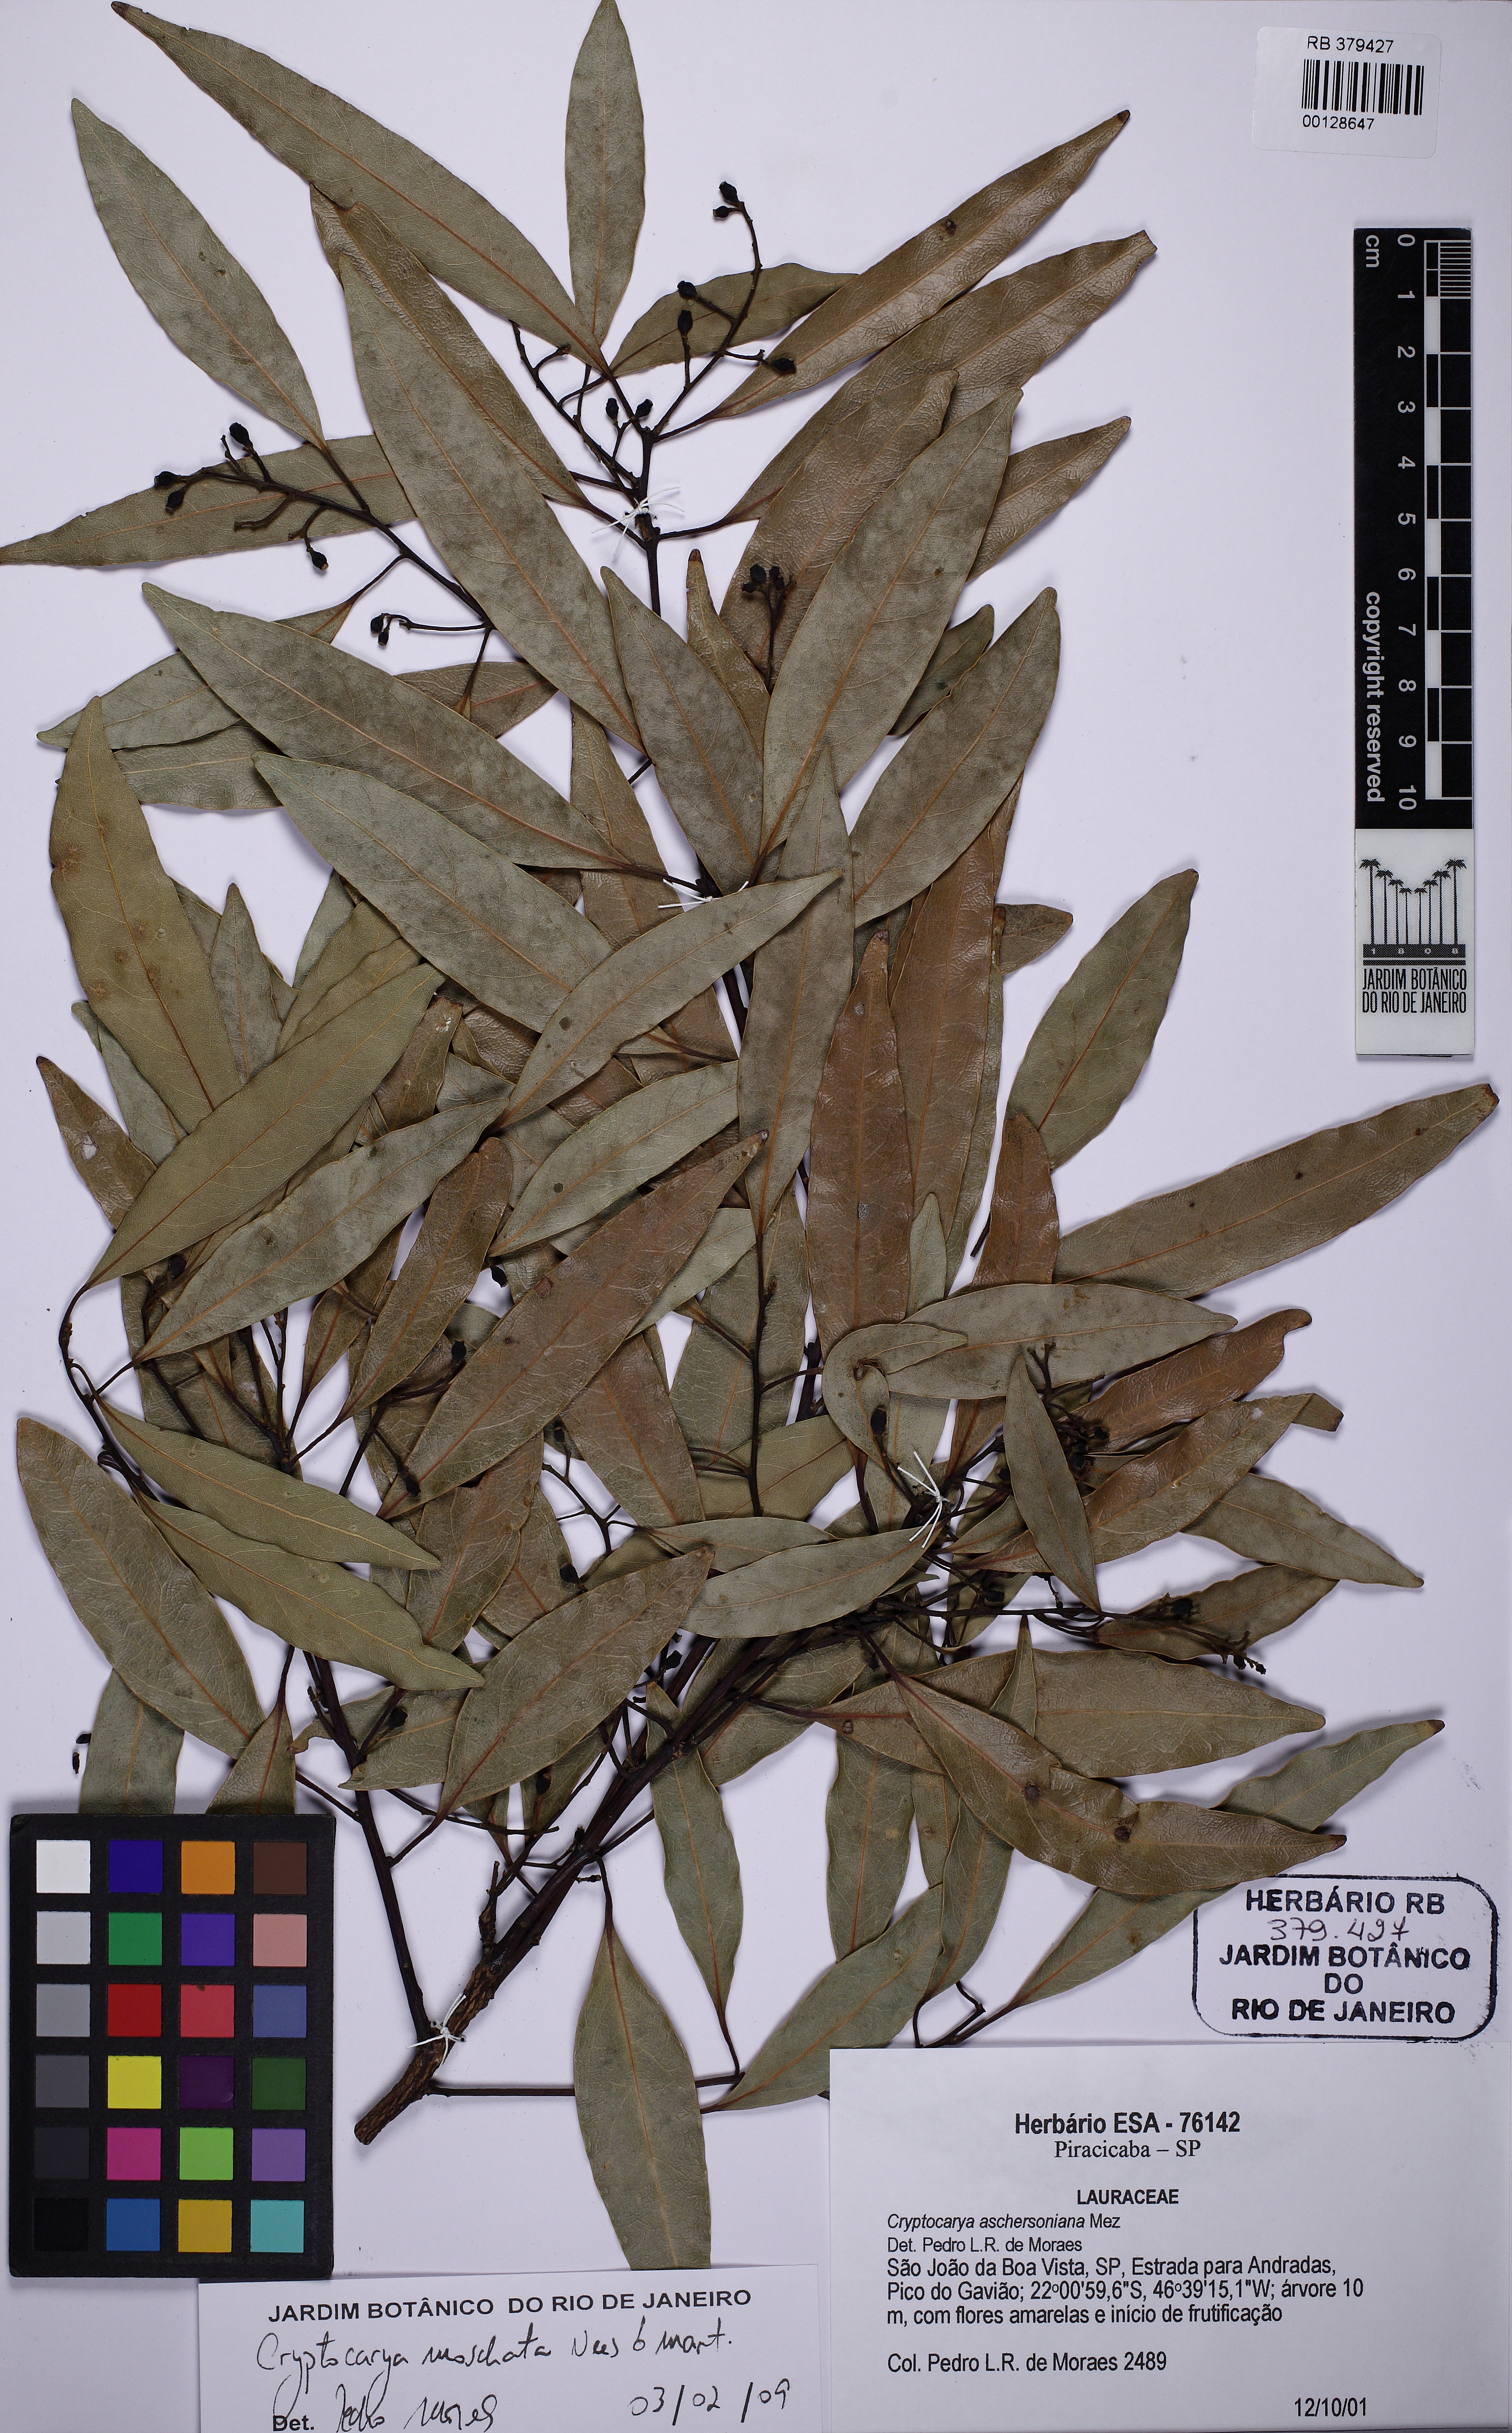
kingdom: Plantae
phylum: Tracheophyta
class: Magnoliopsida
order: Laurales
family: Lauraceae
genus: Cryptocarya
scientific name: Cryptocarya moschata
